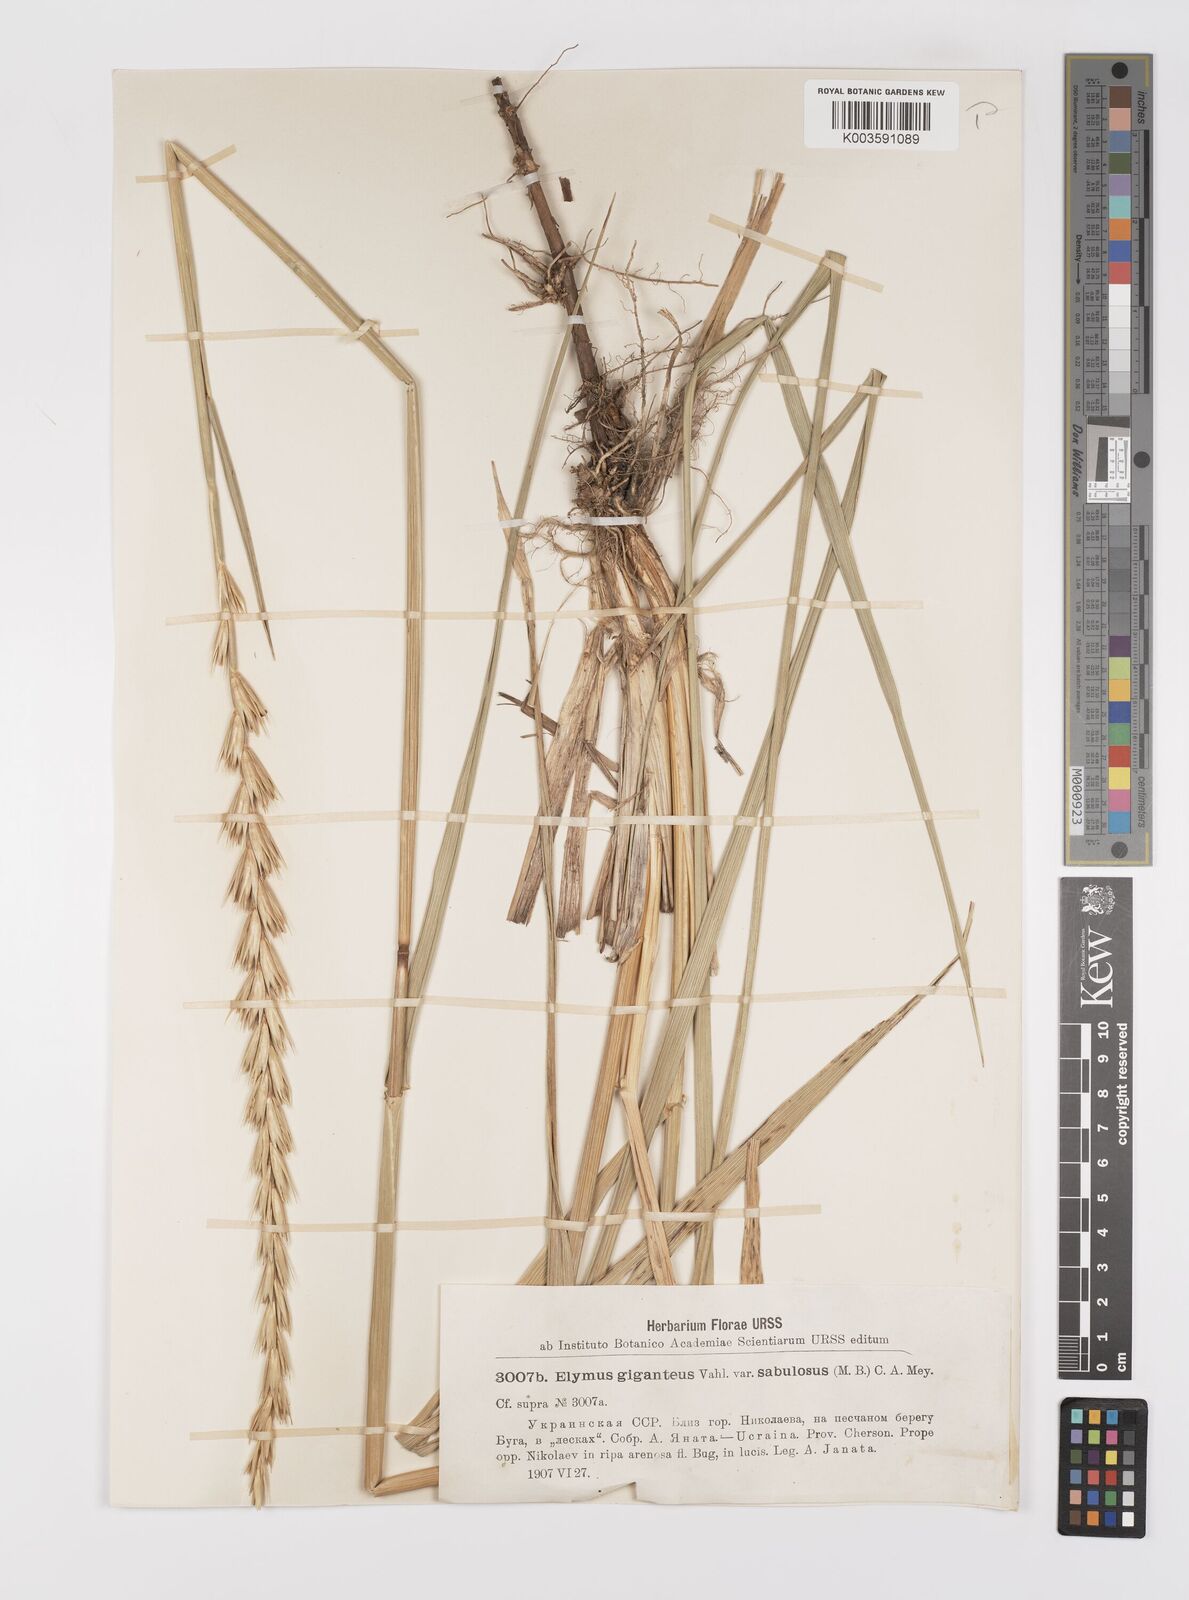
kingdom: Plantae
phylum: Tracheophyta
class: Liliopsida
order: Poales
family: Poaceae
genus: Leymus
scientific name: Leymus racemosus
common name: Mammoth wildrye
